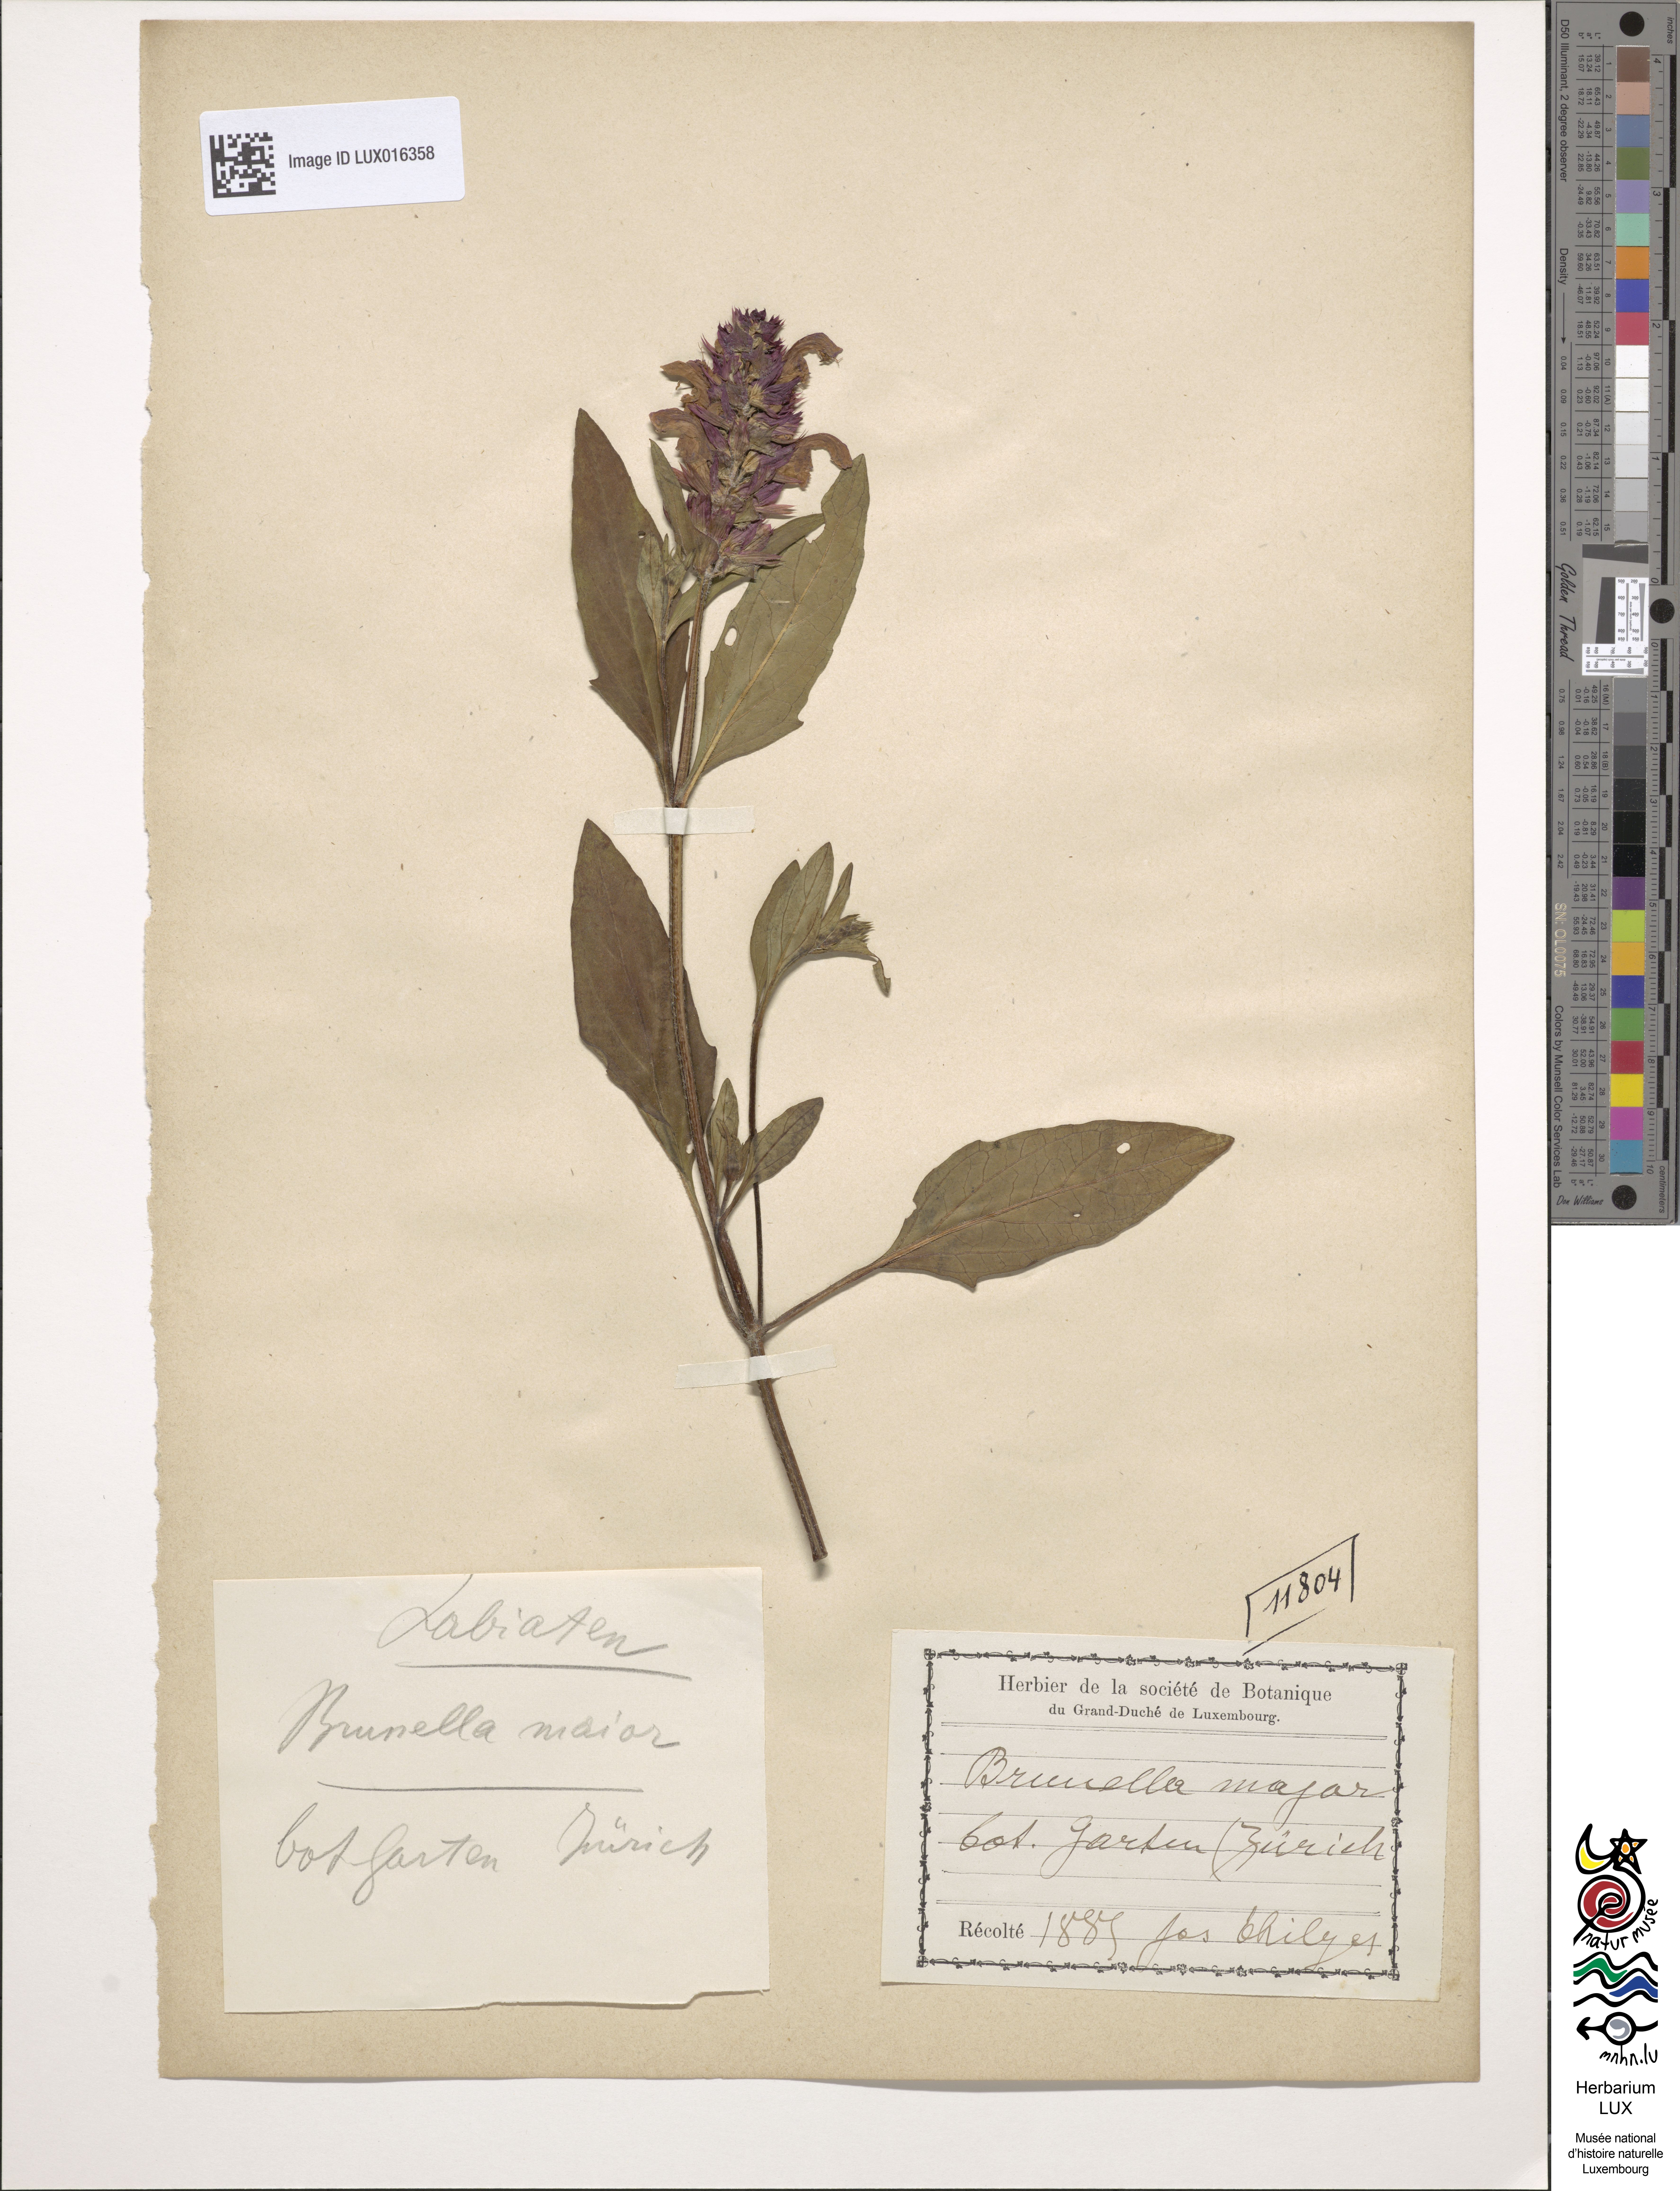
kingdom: Animalia
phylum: Chordata
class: Aves
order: Passeriformes
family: Prunellidae
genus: Prunella
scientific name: Prunella
